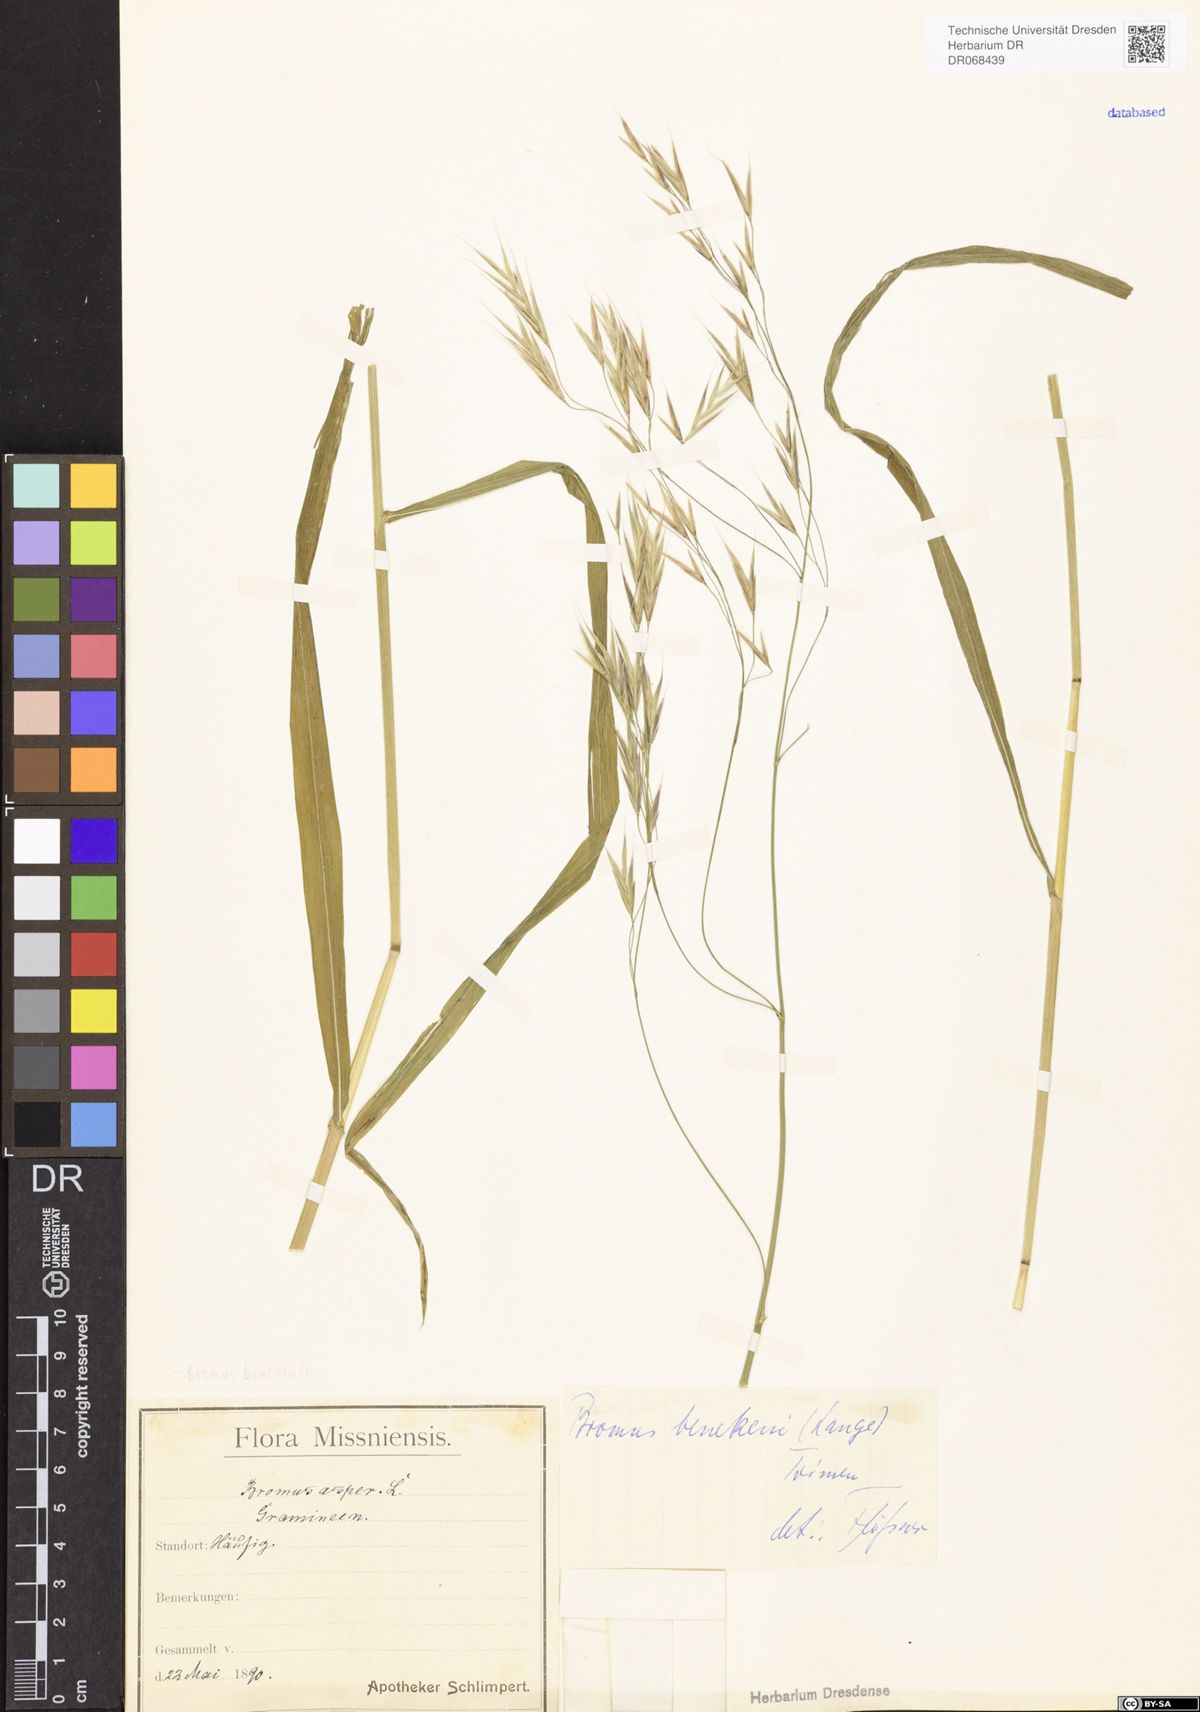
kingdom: Plantae
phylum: Tracheophyta
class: Liliopsida
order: Poales
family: Poaceae
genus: Bromus
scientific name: Bromus benekenii
